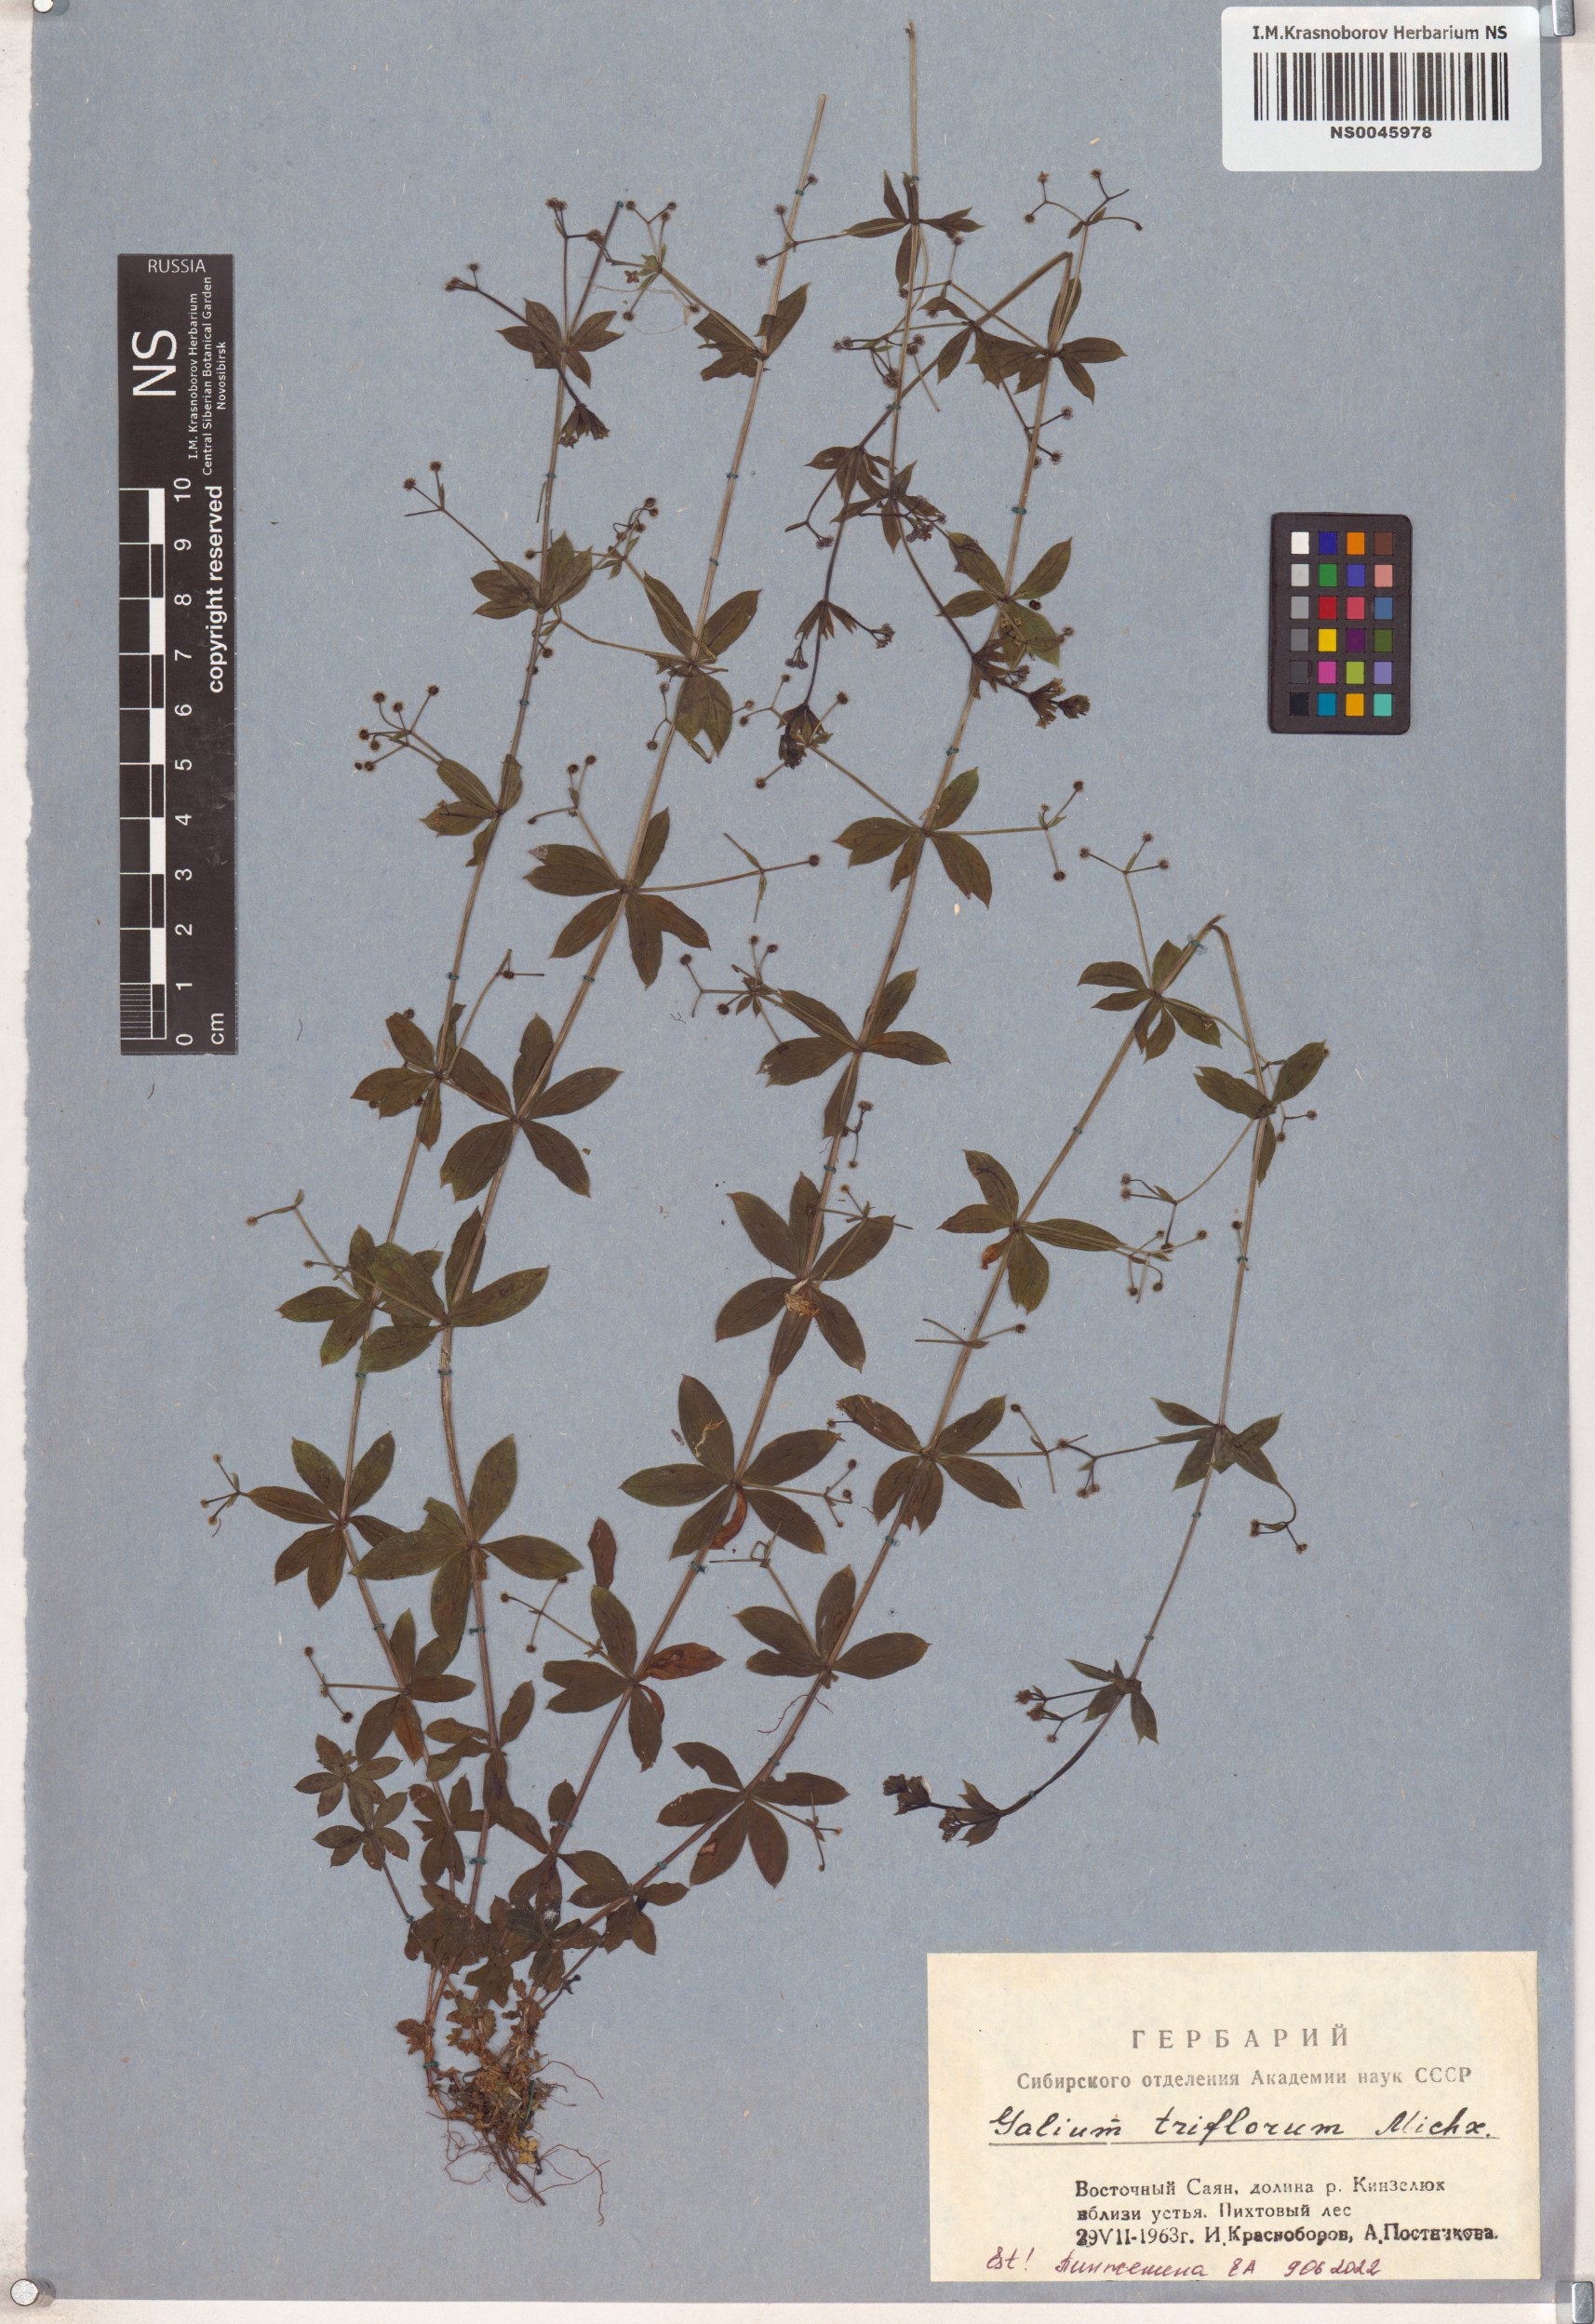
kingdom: Plantae
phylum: Tracheophyta
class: Magnoliopsida
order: Gentianales
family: Rubiaceae
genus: Galium
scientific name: Galium triflorum
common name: Fragrant bedstraw
